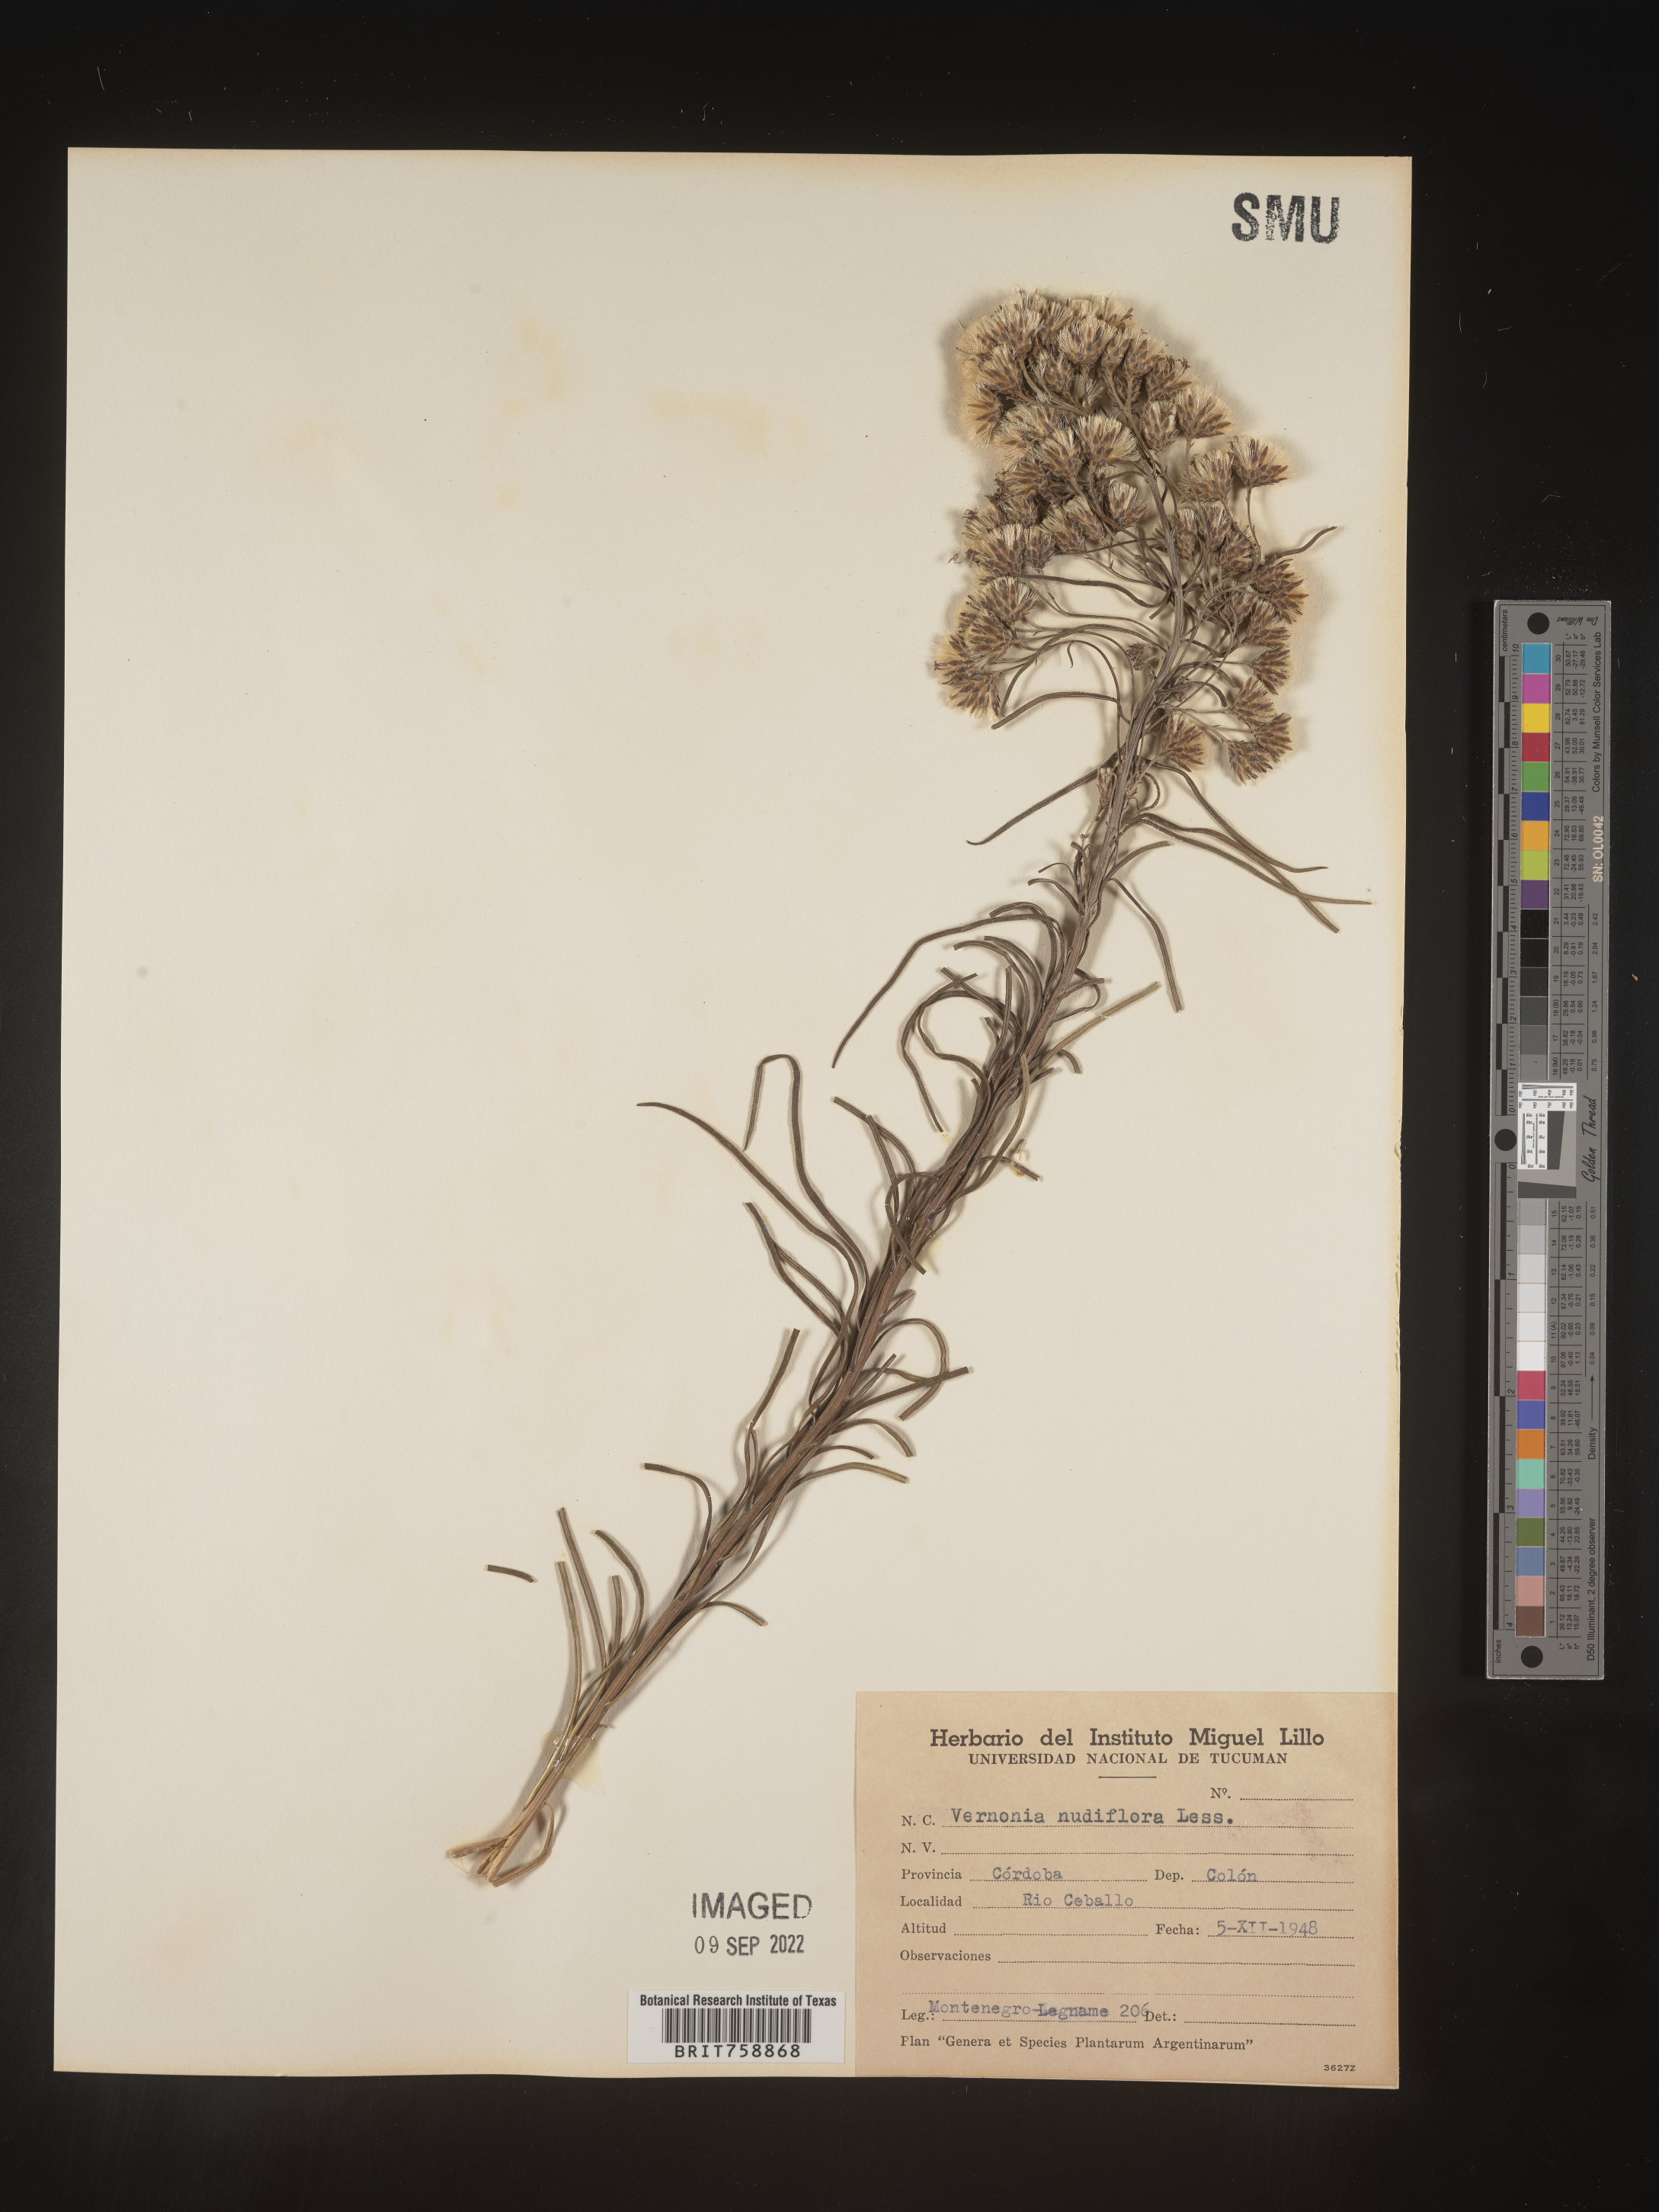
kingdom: Plantae
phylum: Tracheophyta
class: Magnoliopsida
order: Asterales
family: Asteraceae
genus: Vernonia
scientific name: Vernonia
